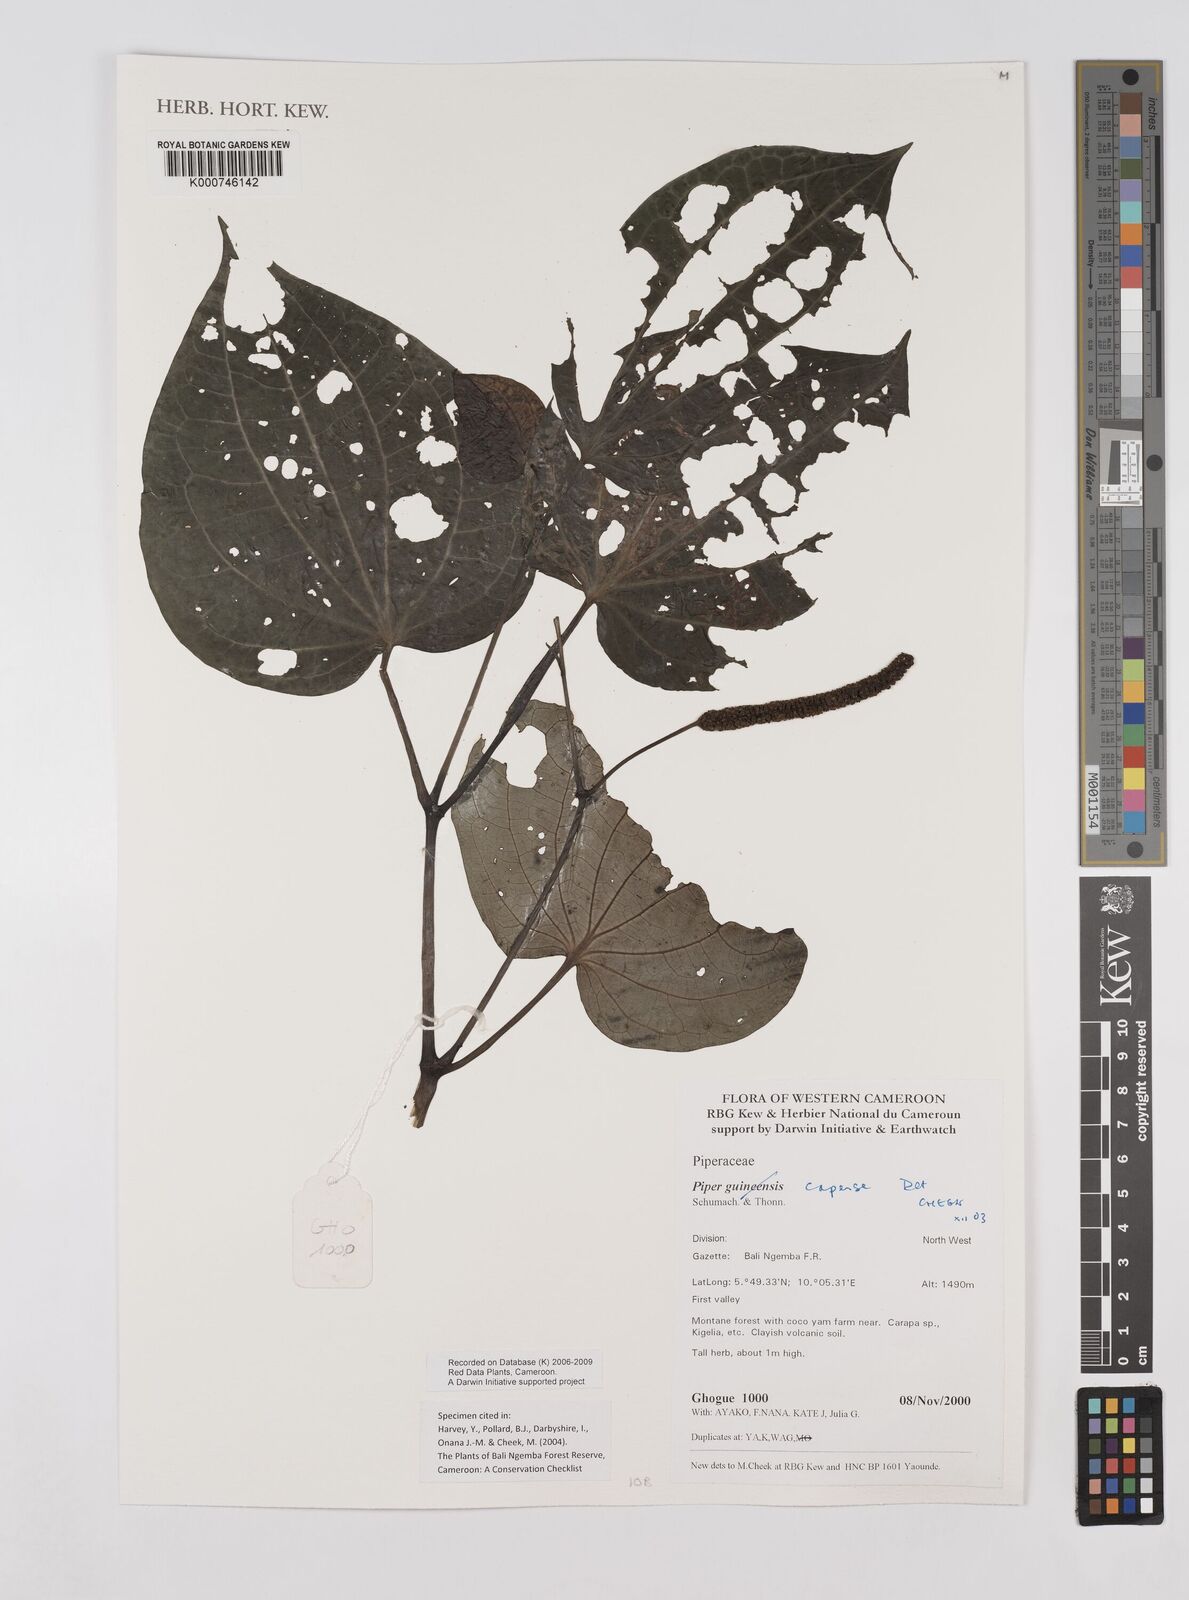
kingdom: Plantae
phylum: Tracheophyta
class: Magnoliopsida
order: Piperales
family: Piperaceae
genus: Piper
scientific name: Piper capense
